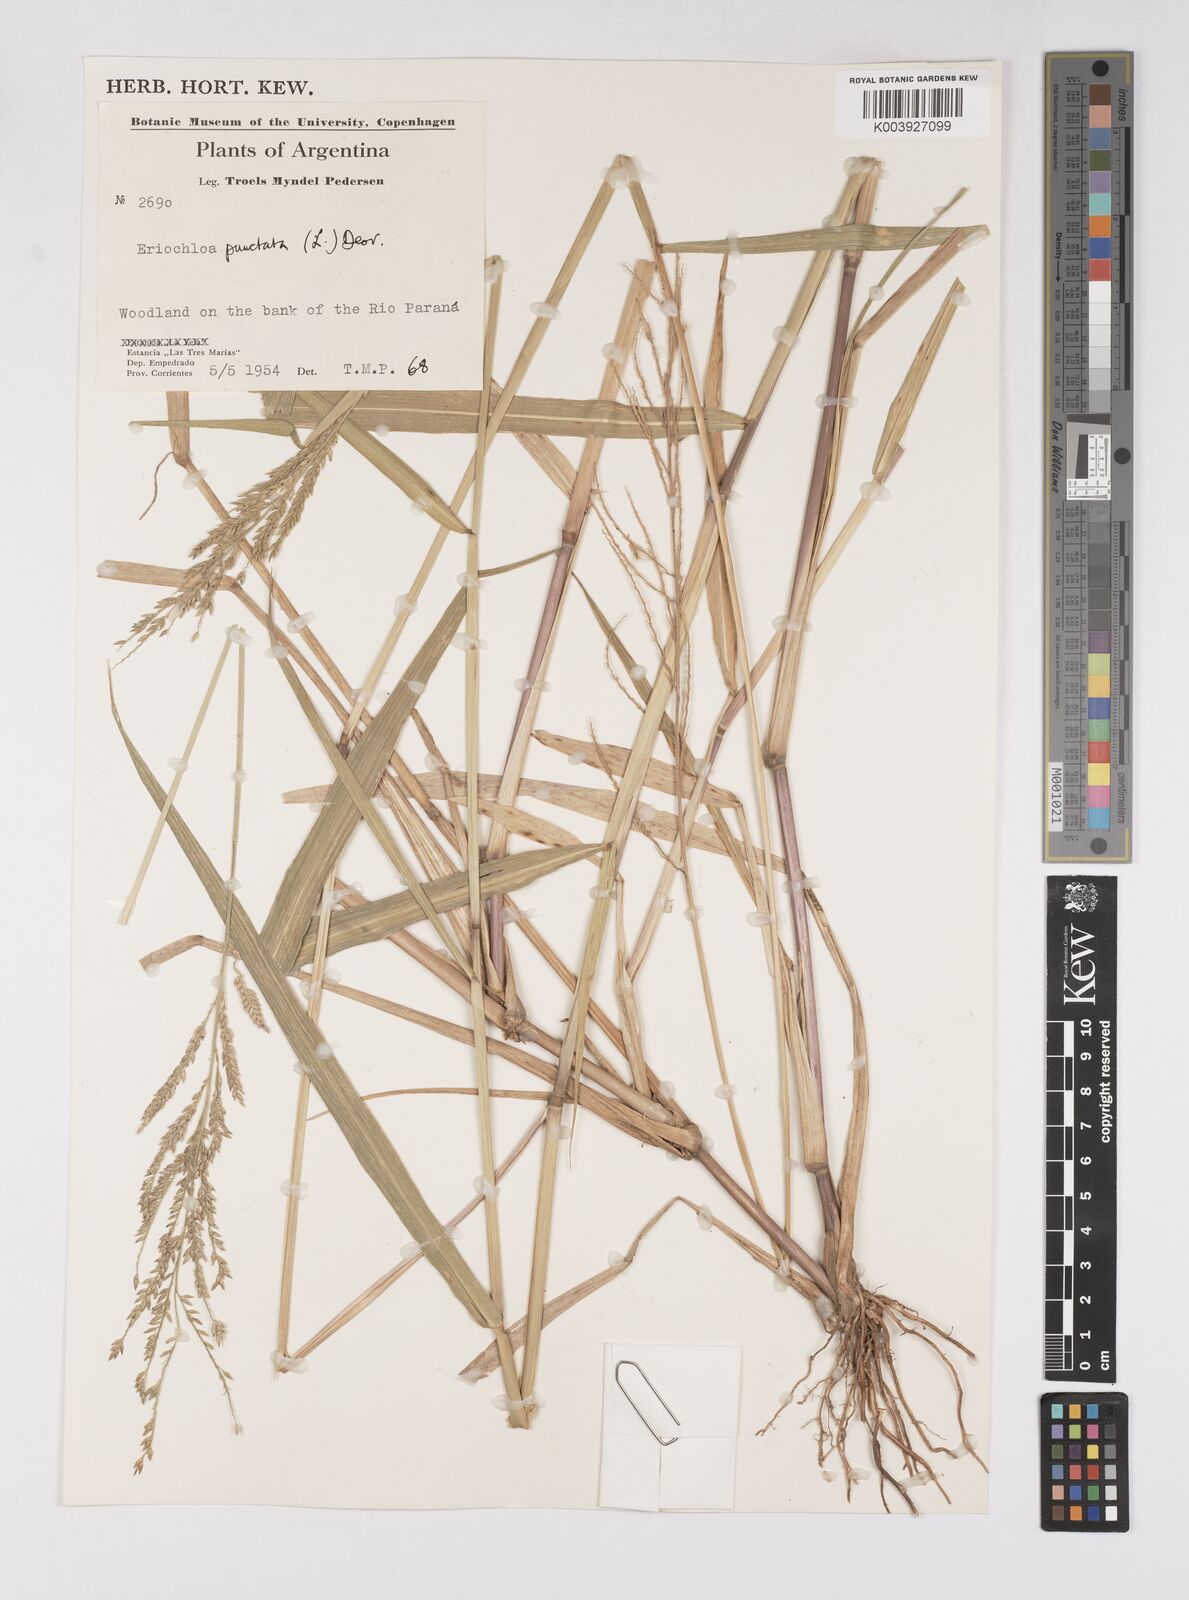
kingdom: Plantae
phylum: Tracheophyta
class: Liliopsida
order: Poales
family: Poaceae
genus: Eriochloa
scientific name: Eriochloa punctata
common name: Louisiana cupgrass
